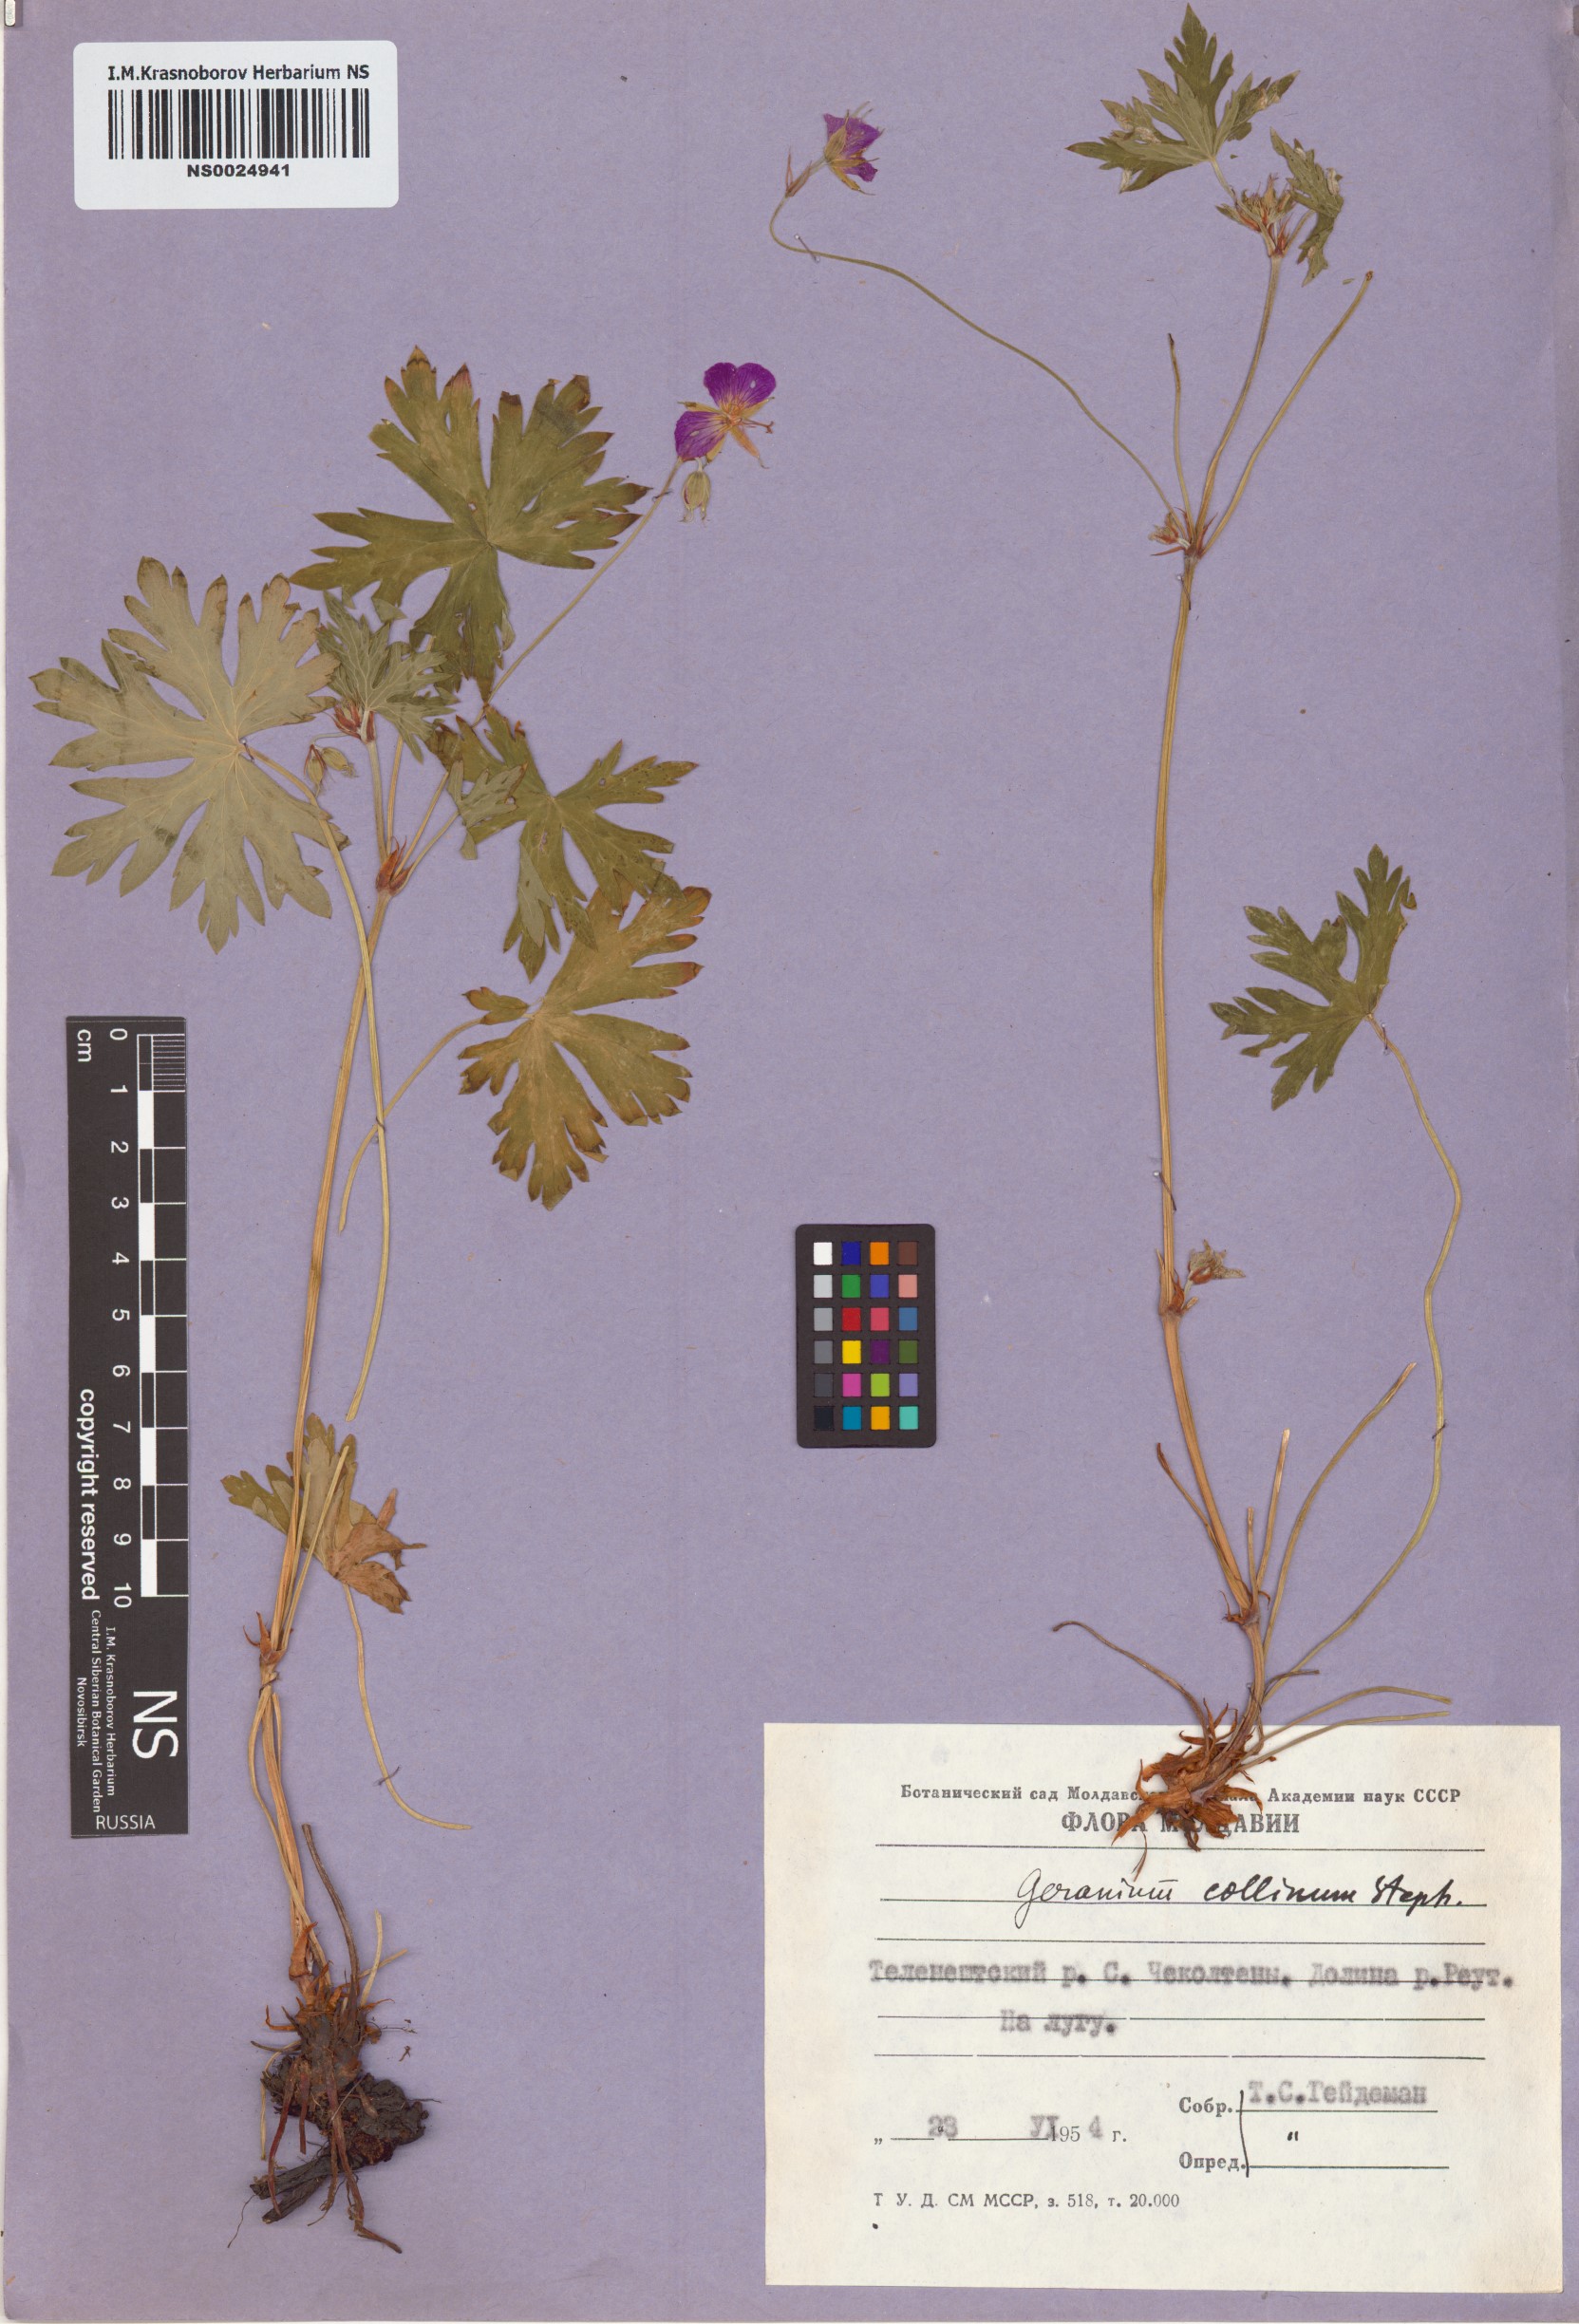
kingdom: Plantae
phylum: Tracheophyta
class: Magnoliopsida
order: Geraniales
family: Geraniaceae
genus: Geranium
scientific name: Geranium collinum
